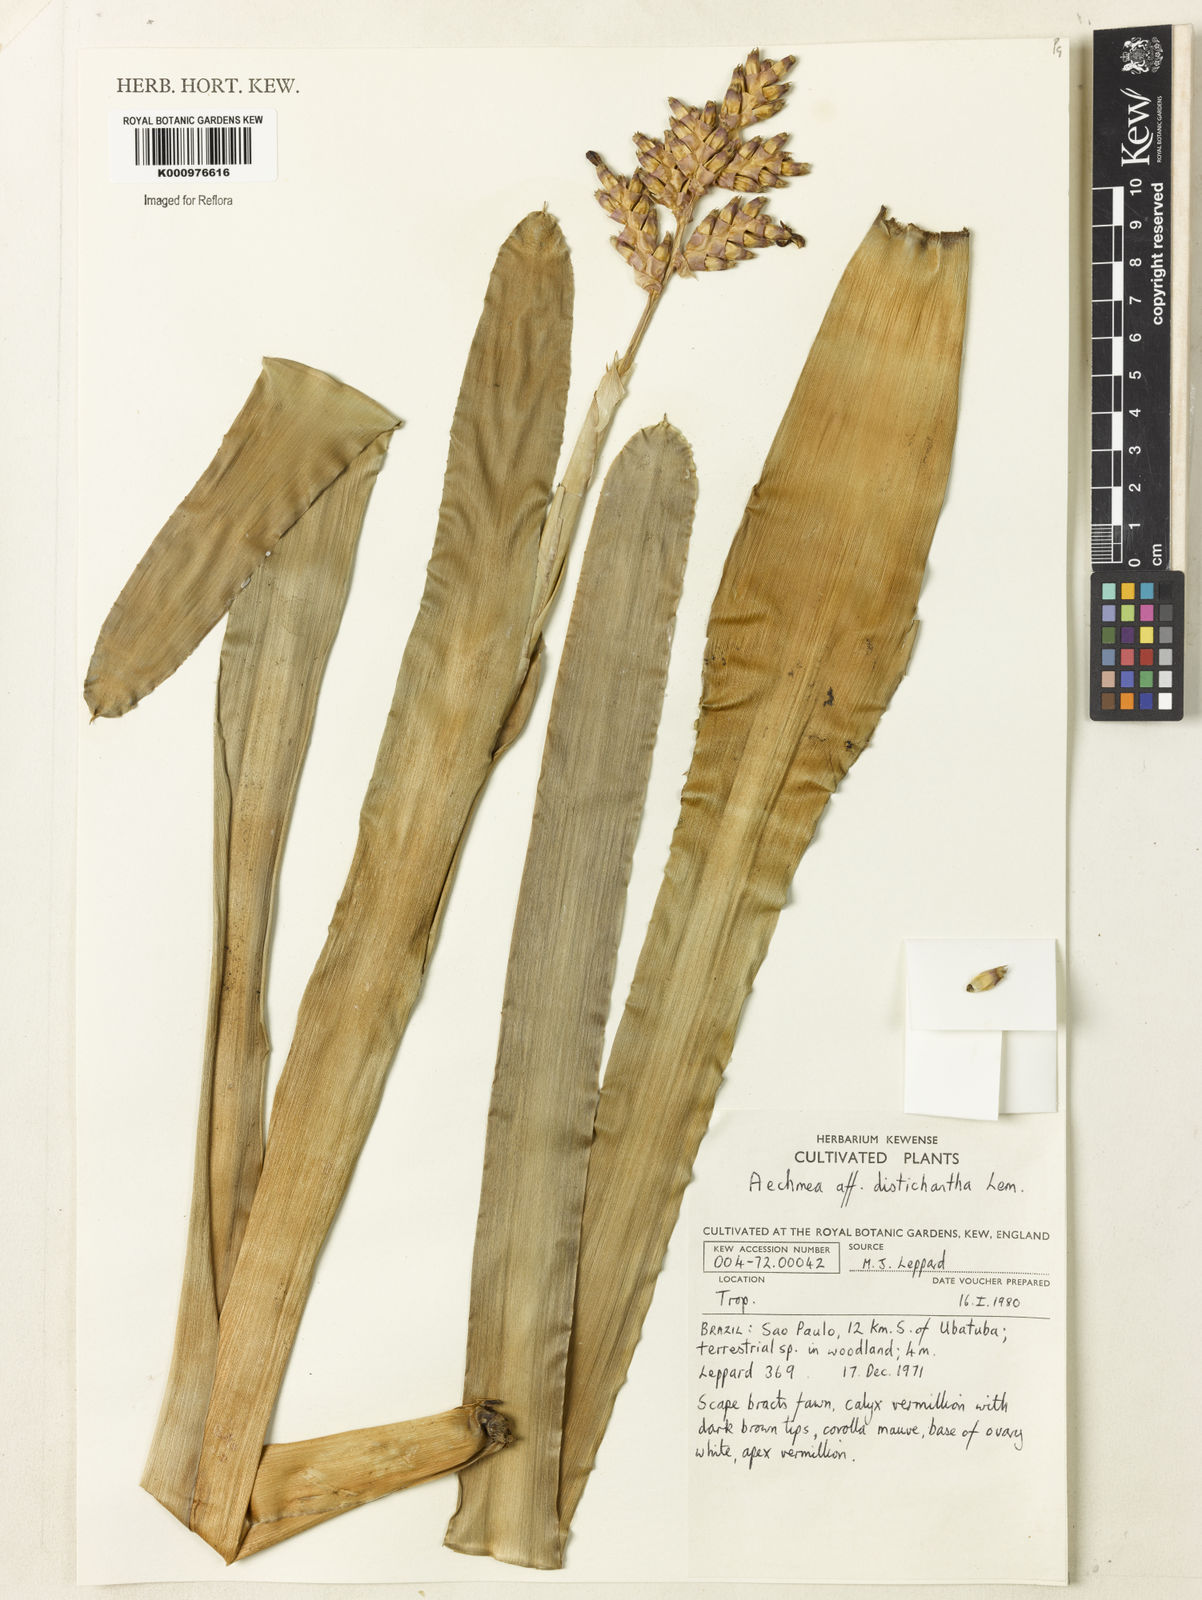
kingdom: Plantae
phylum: Tracheophyta
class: Liliopsida
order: Poales
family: Bromeliaceae
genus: Aechmea
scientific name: Aechmea distichantha
